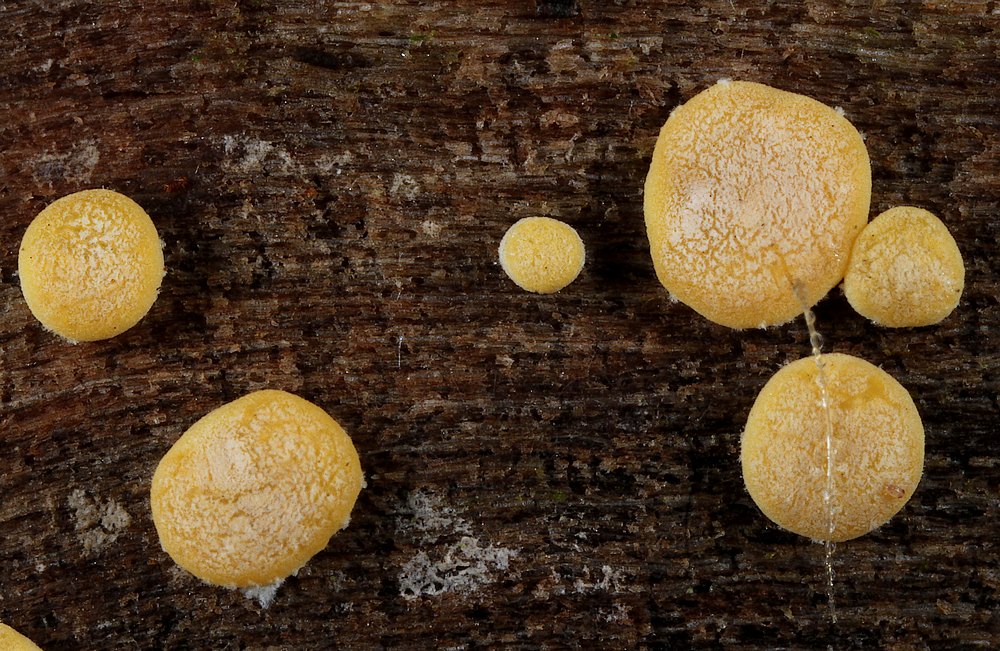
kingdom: Fungi
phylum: Ascomycota
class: Sordariomycetes
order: Hypocreales
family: Hypocreaceae
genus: Trichoderma
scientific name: Trichoderma aureoviride
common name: æggegul kødkerne
